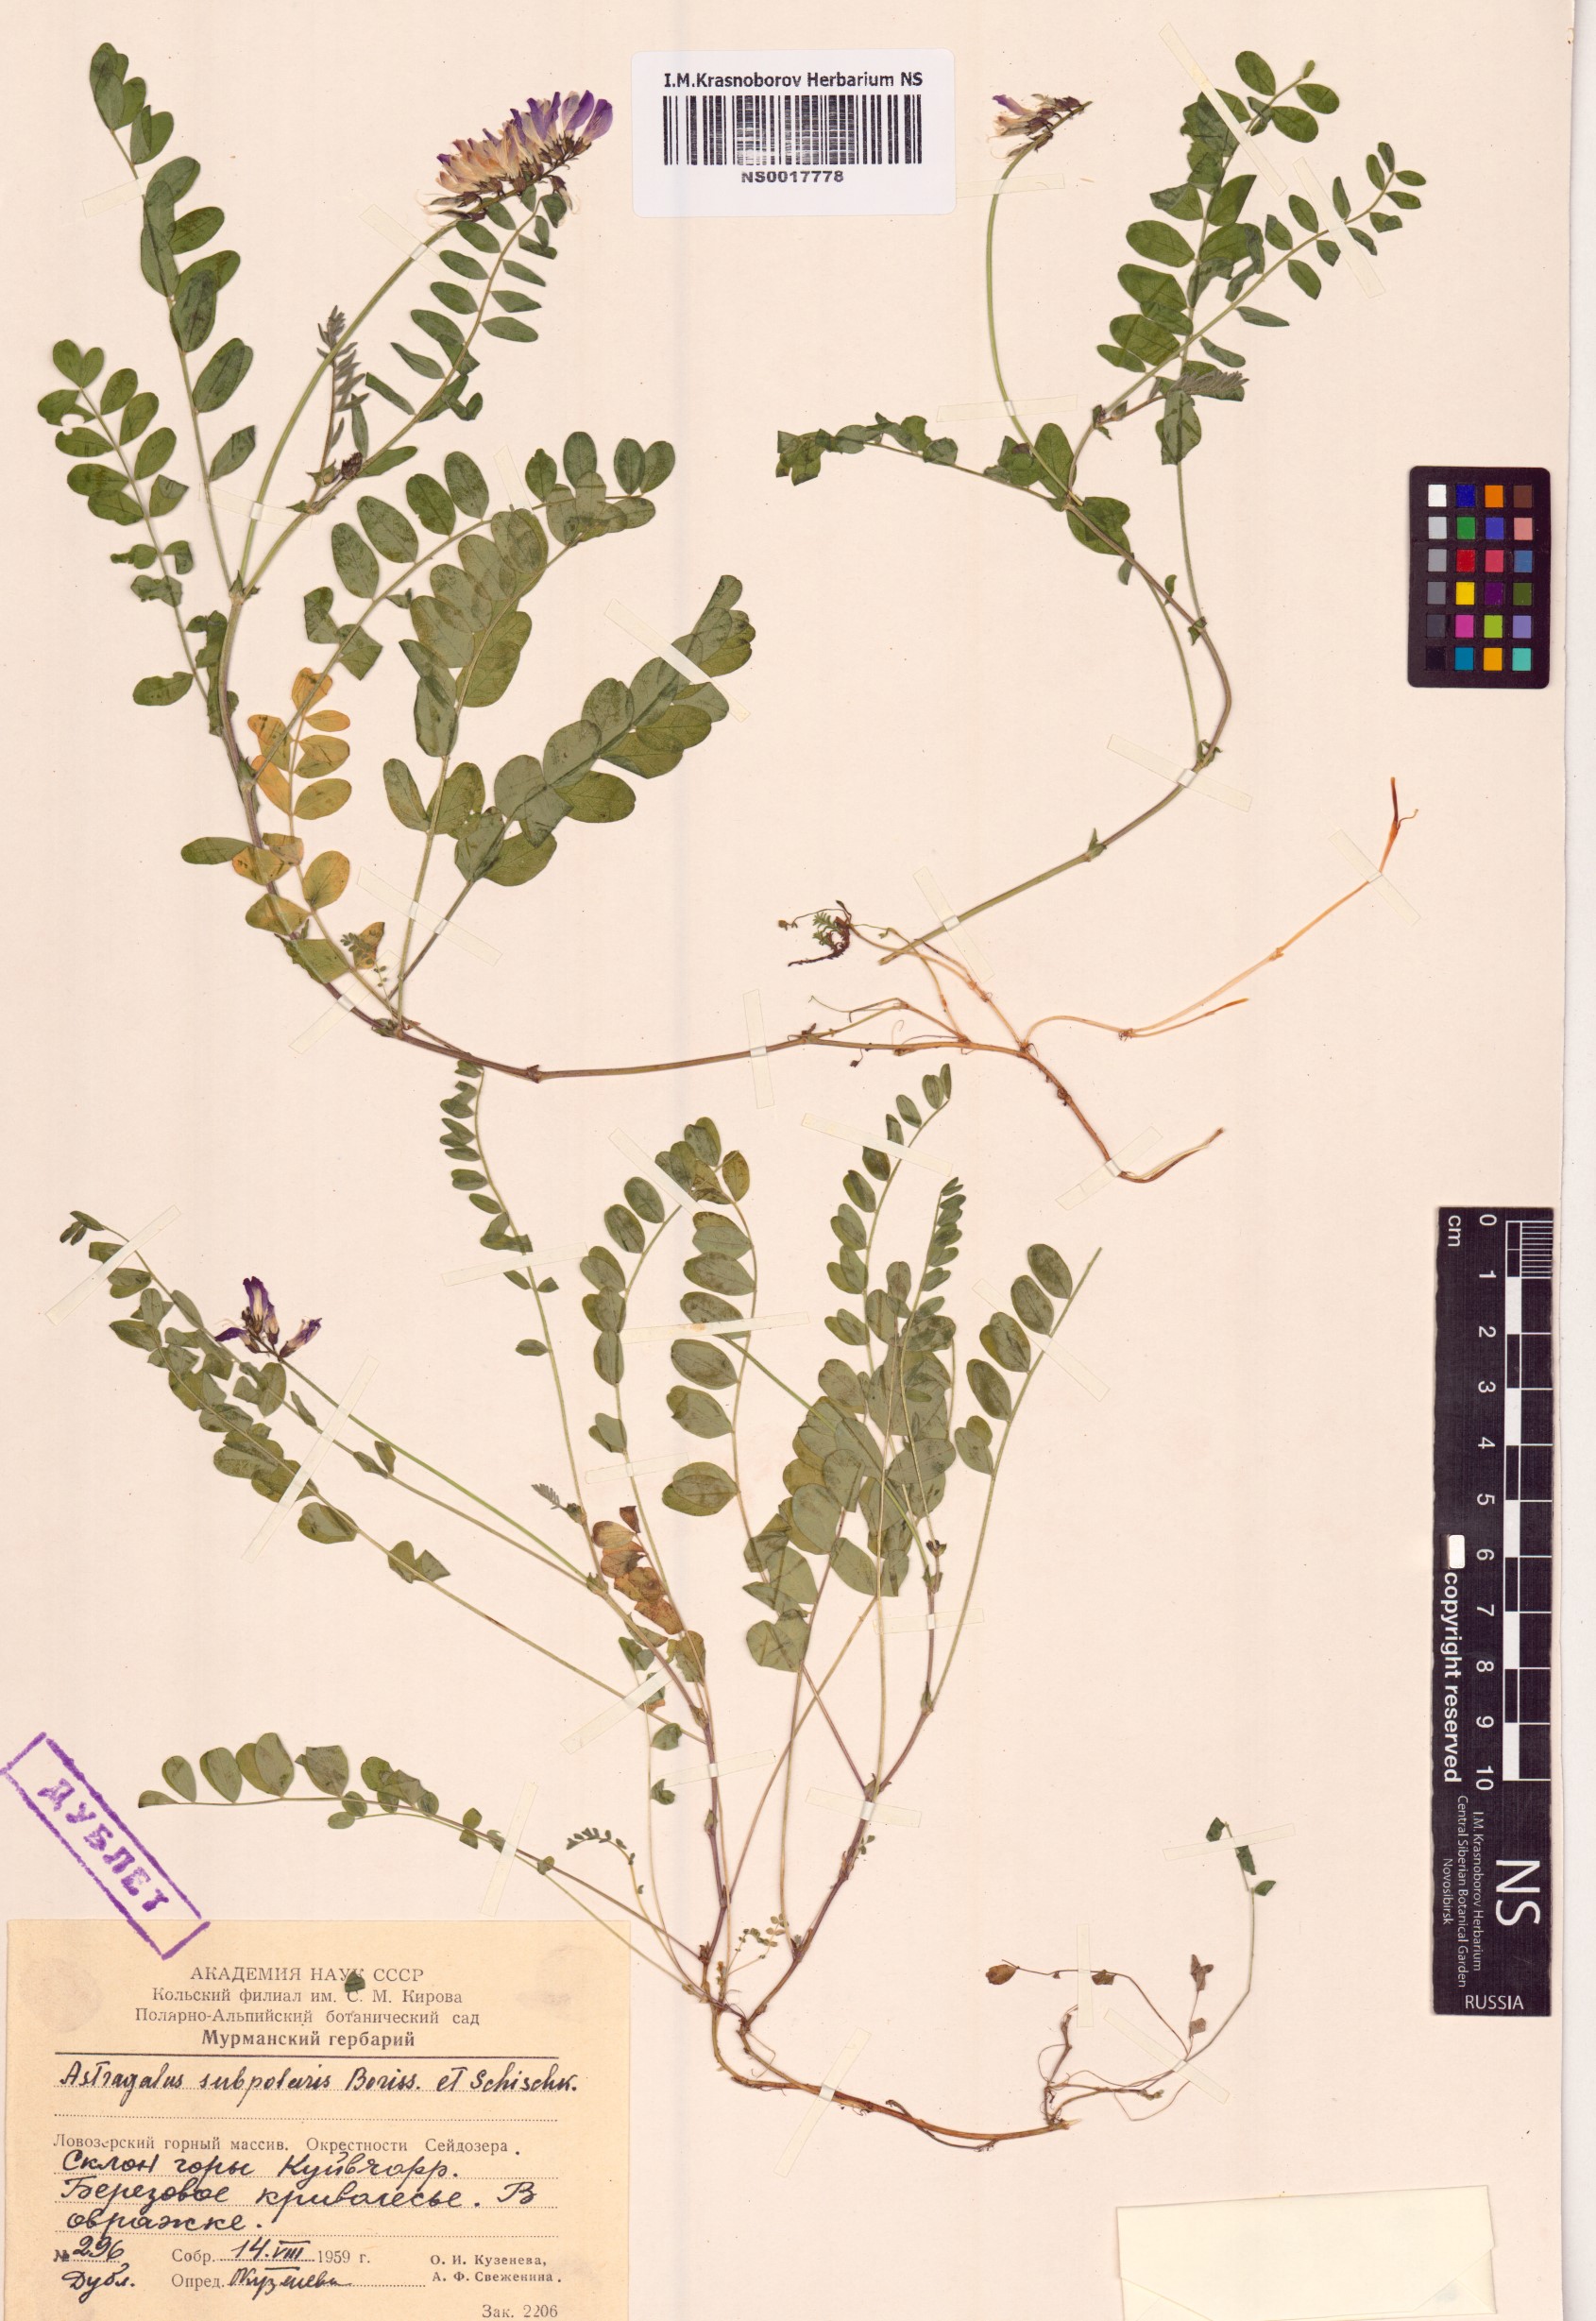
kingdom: Plantae
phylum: Tracheophyta
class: Magnoliopsida
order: Fabales
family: Fabaceae
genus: Astragalus
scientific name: Astragalus norvegicus
